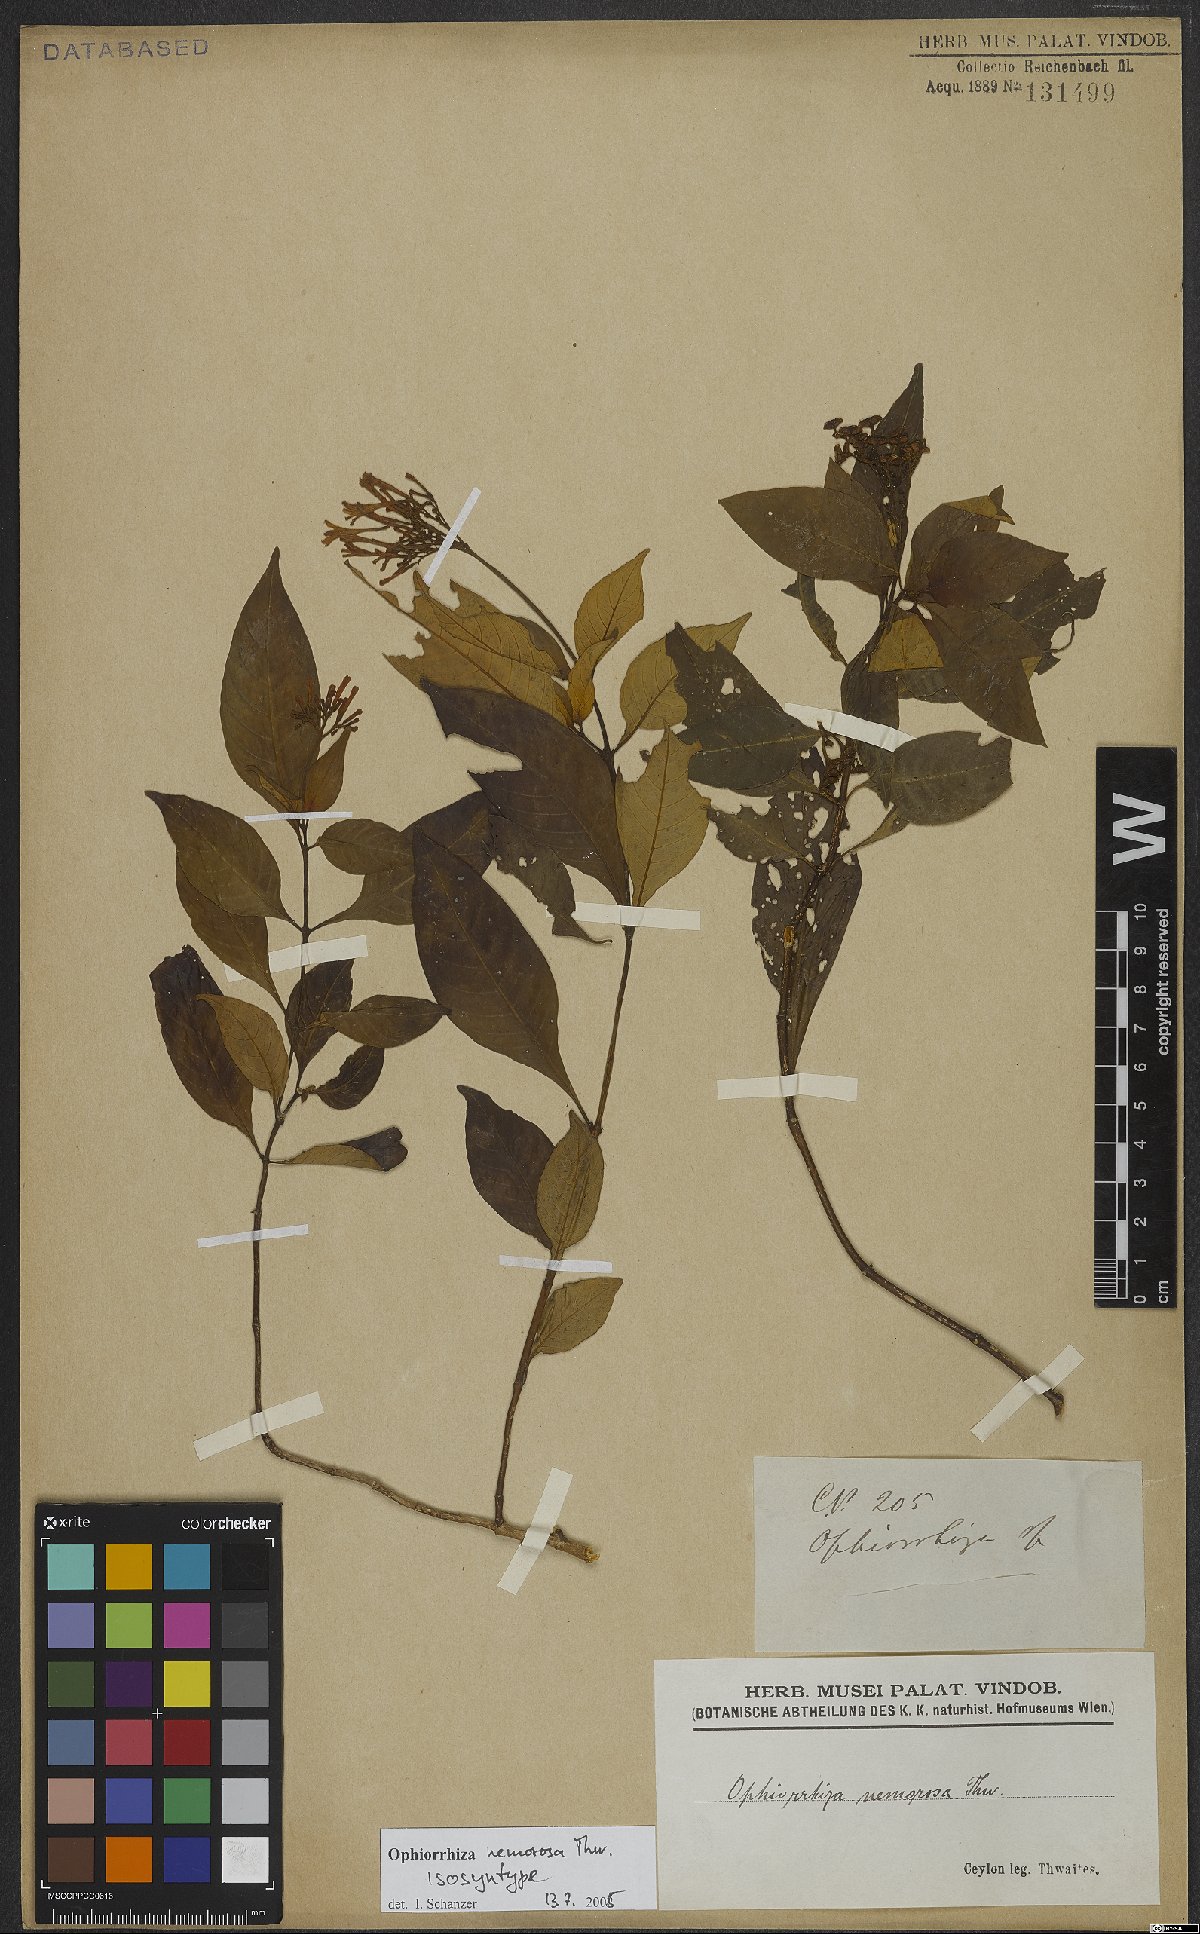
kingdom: Plantae
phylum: Tracheophyta
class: Magnoliopsida
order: Gentianales
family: Rubiaceae
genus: Ophiorrhiza
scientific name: Ophiorrhiza nemorosa
